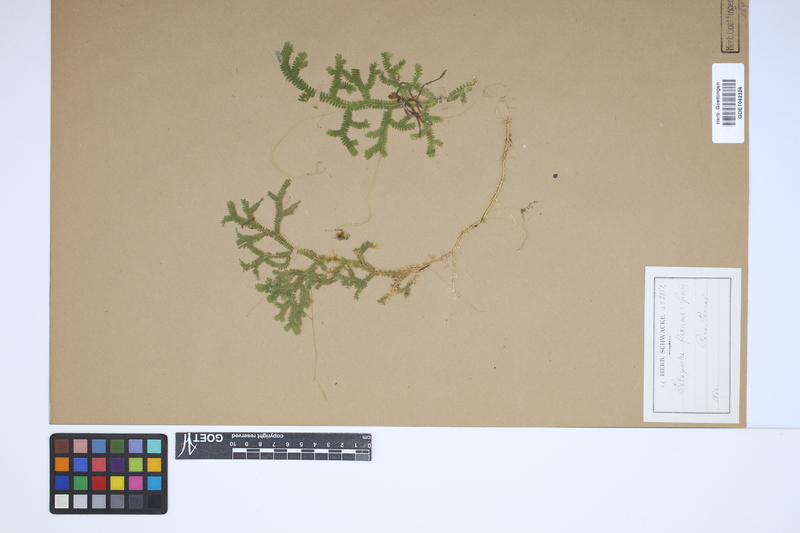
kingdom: Plantae
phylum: Tracheophyta
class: Lycopodiopsida
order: Selaginellales
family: Selaginellaceae
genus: Selaginella
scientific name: Selaginella flexuosa
